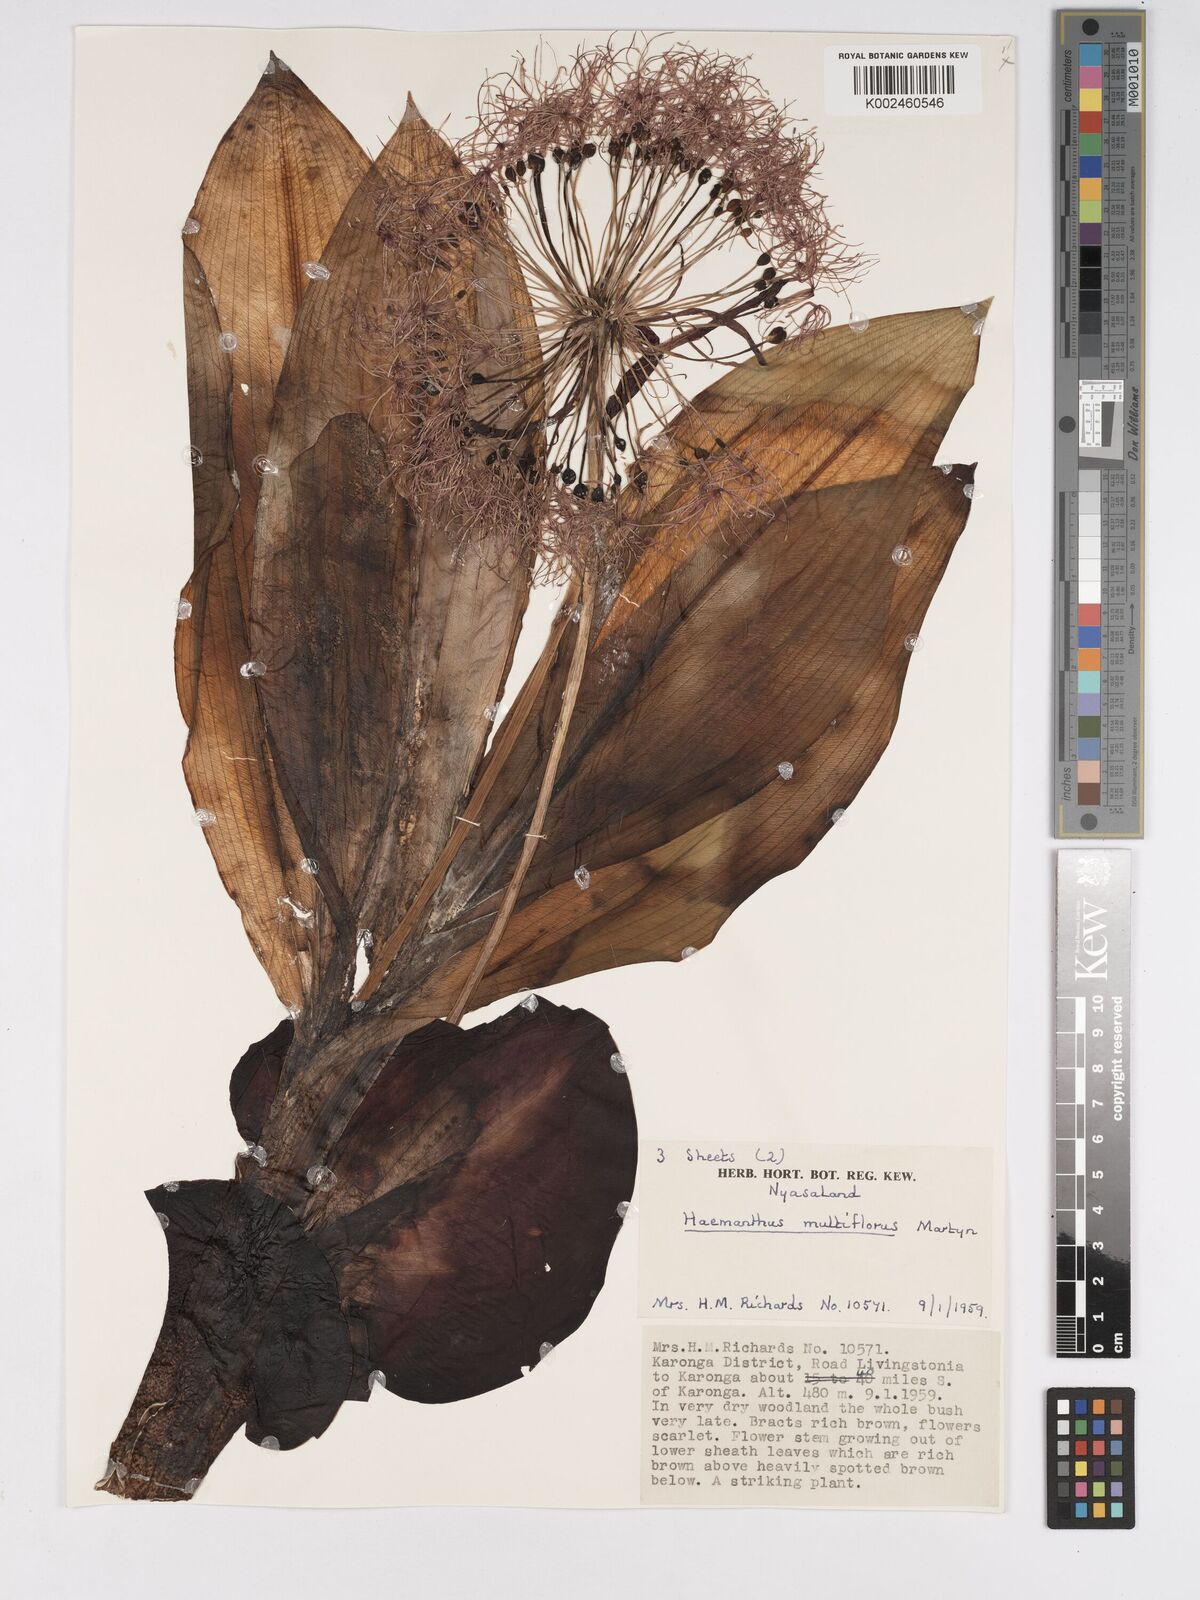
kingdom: Plantae
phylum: Tracheophyta
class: Liliopsida
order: Asparagales
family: Amaryllidaceae
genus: Scadoxus
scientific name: Scadoxus multiflorus
